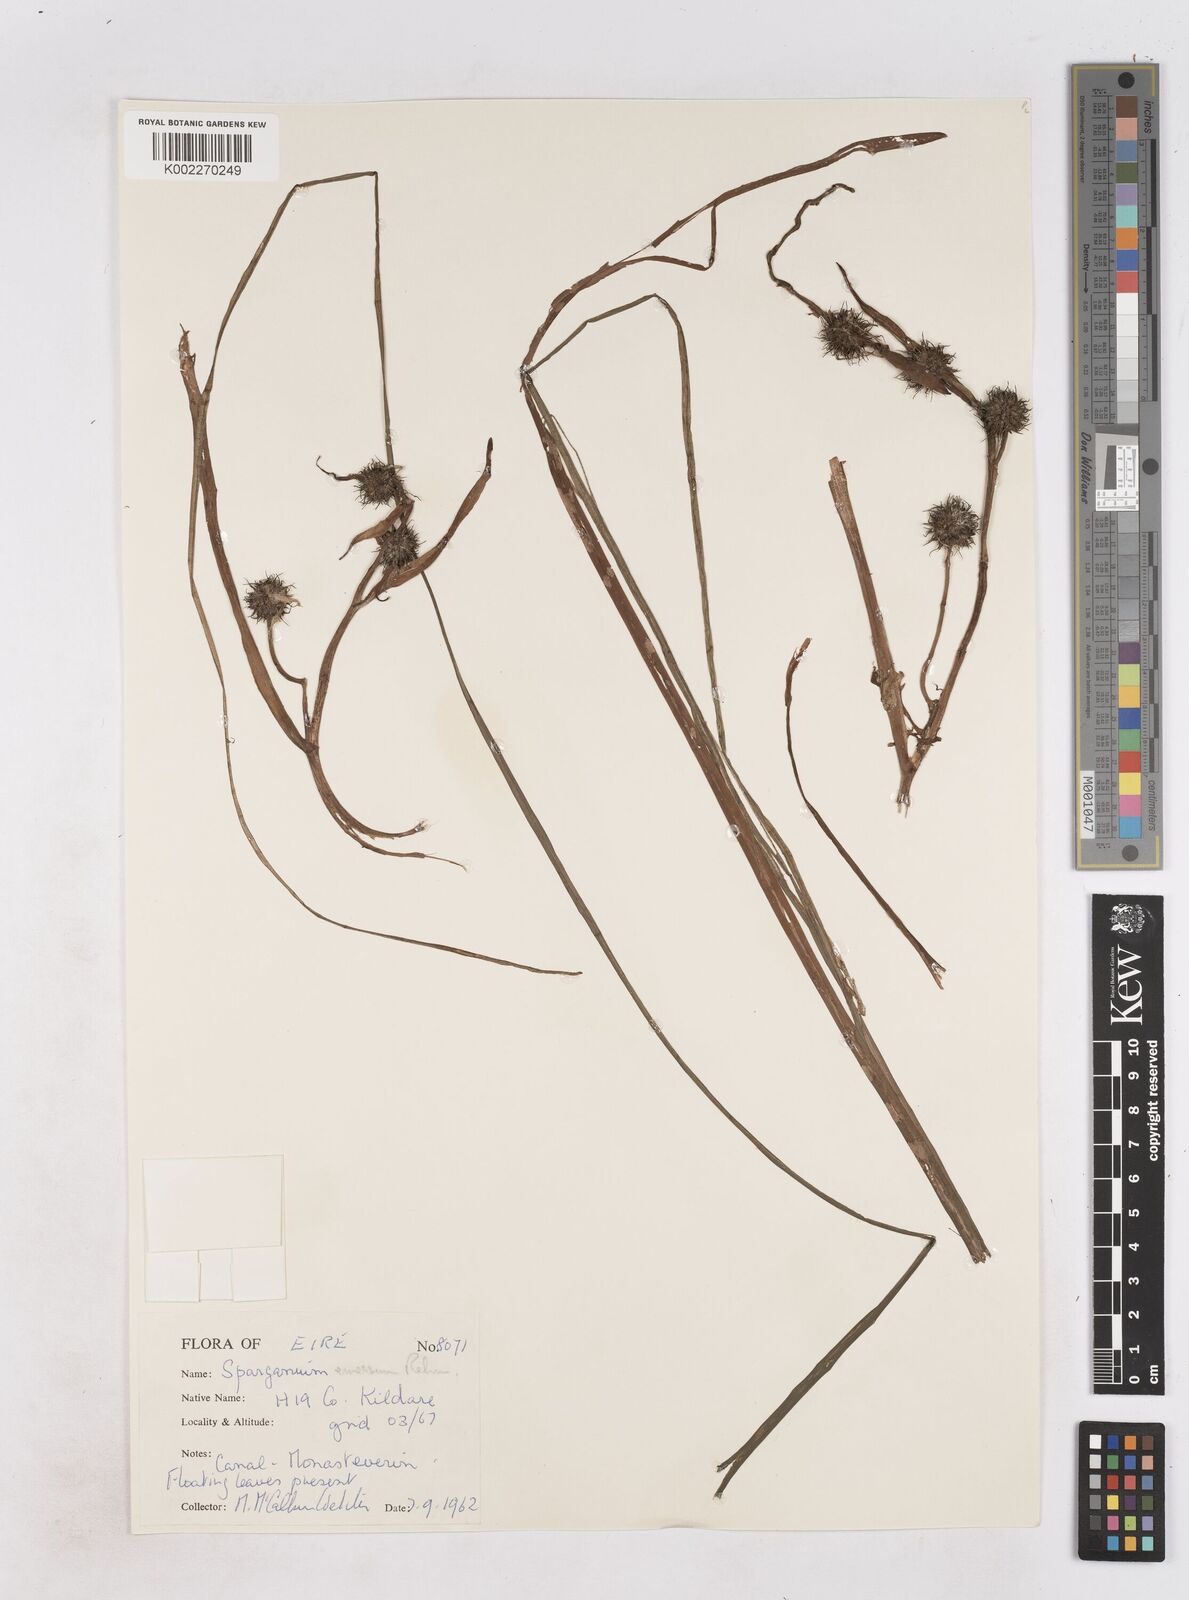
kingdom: Plantae
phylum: Tracheophyta
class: Liliopsida
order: Poales
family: Typhaceae
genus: Sparganium
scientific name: Sparganium emersum
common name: Unbranched bur-reed
